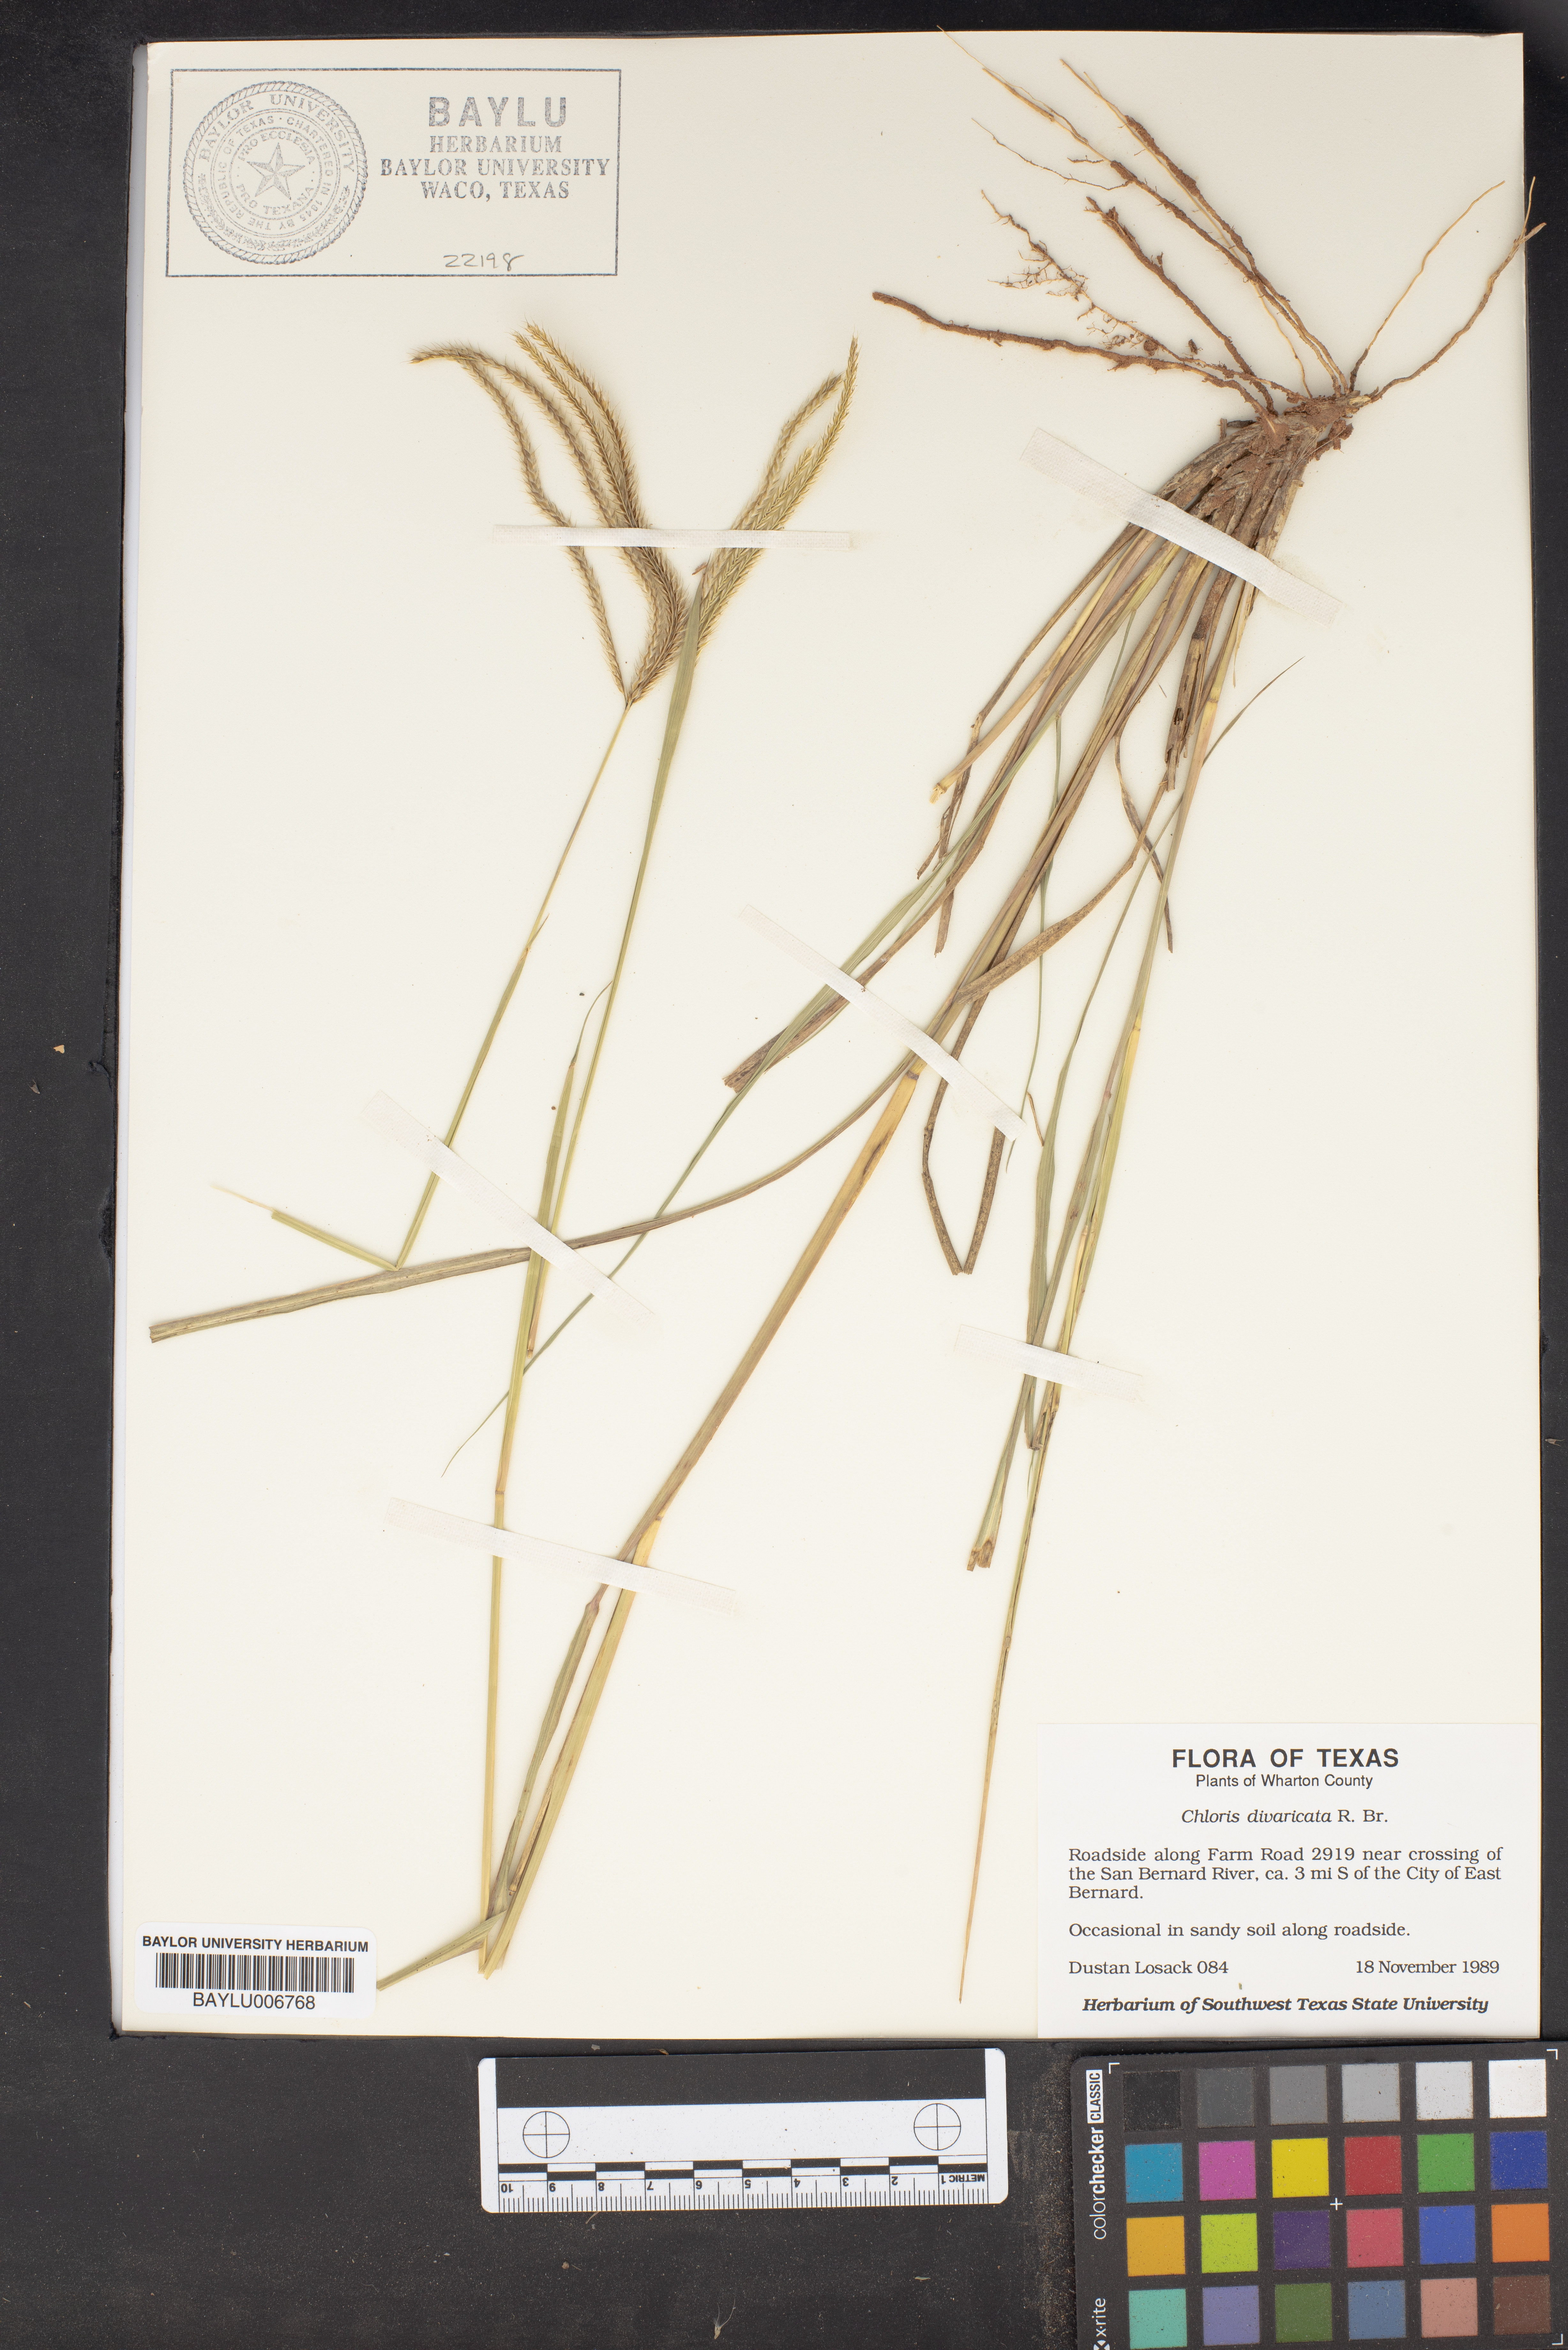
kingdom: Plantae
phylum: Tracheophyta
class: Liliopsida
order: Poales
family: Poaceae
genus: Chloris
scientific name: Chloris divaricata
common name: Spreading windmill grass
